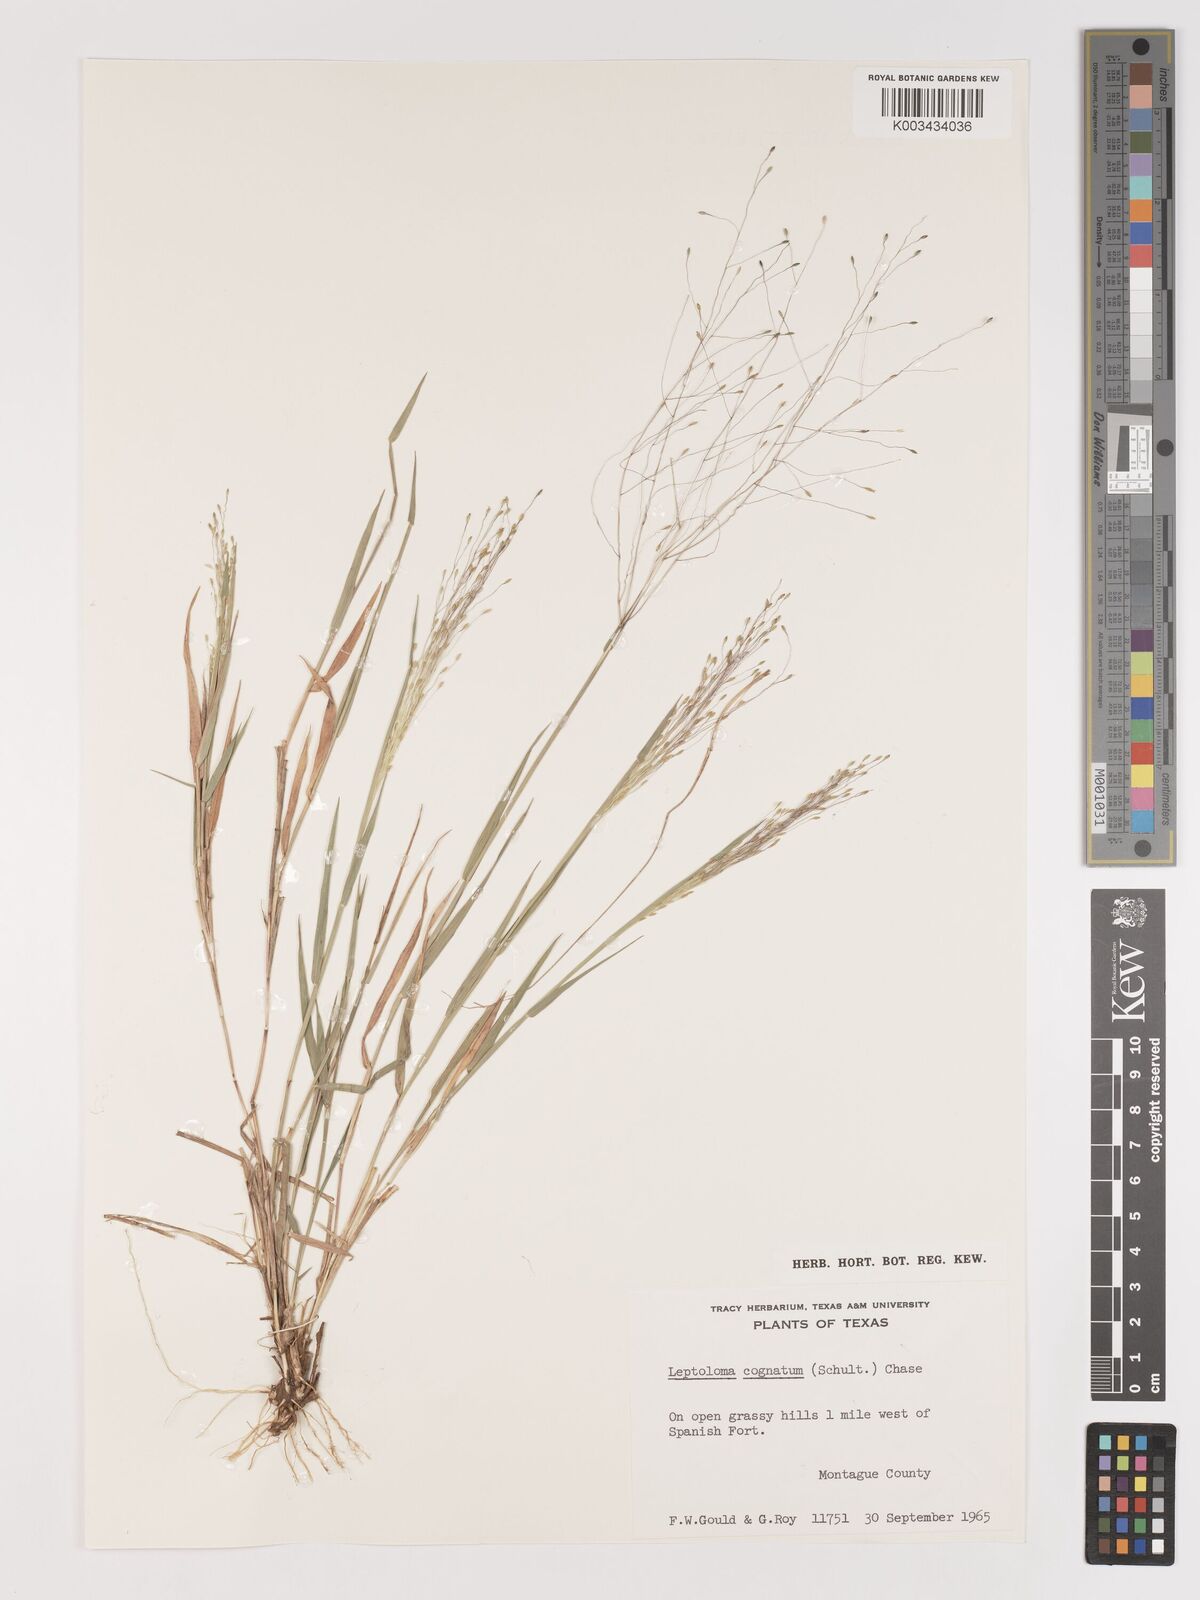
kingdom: Plantae
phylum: Tracheophyta
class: Liliopsida
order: Poales
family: Poaceae
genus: Digitaria
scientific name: Digitaria cognata
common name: Fall witchgrass
